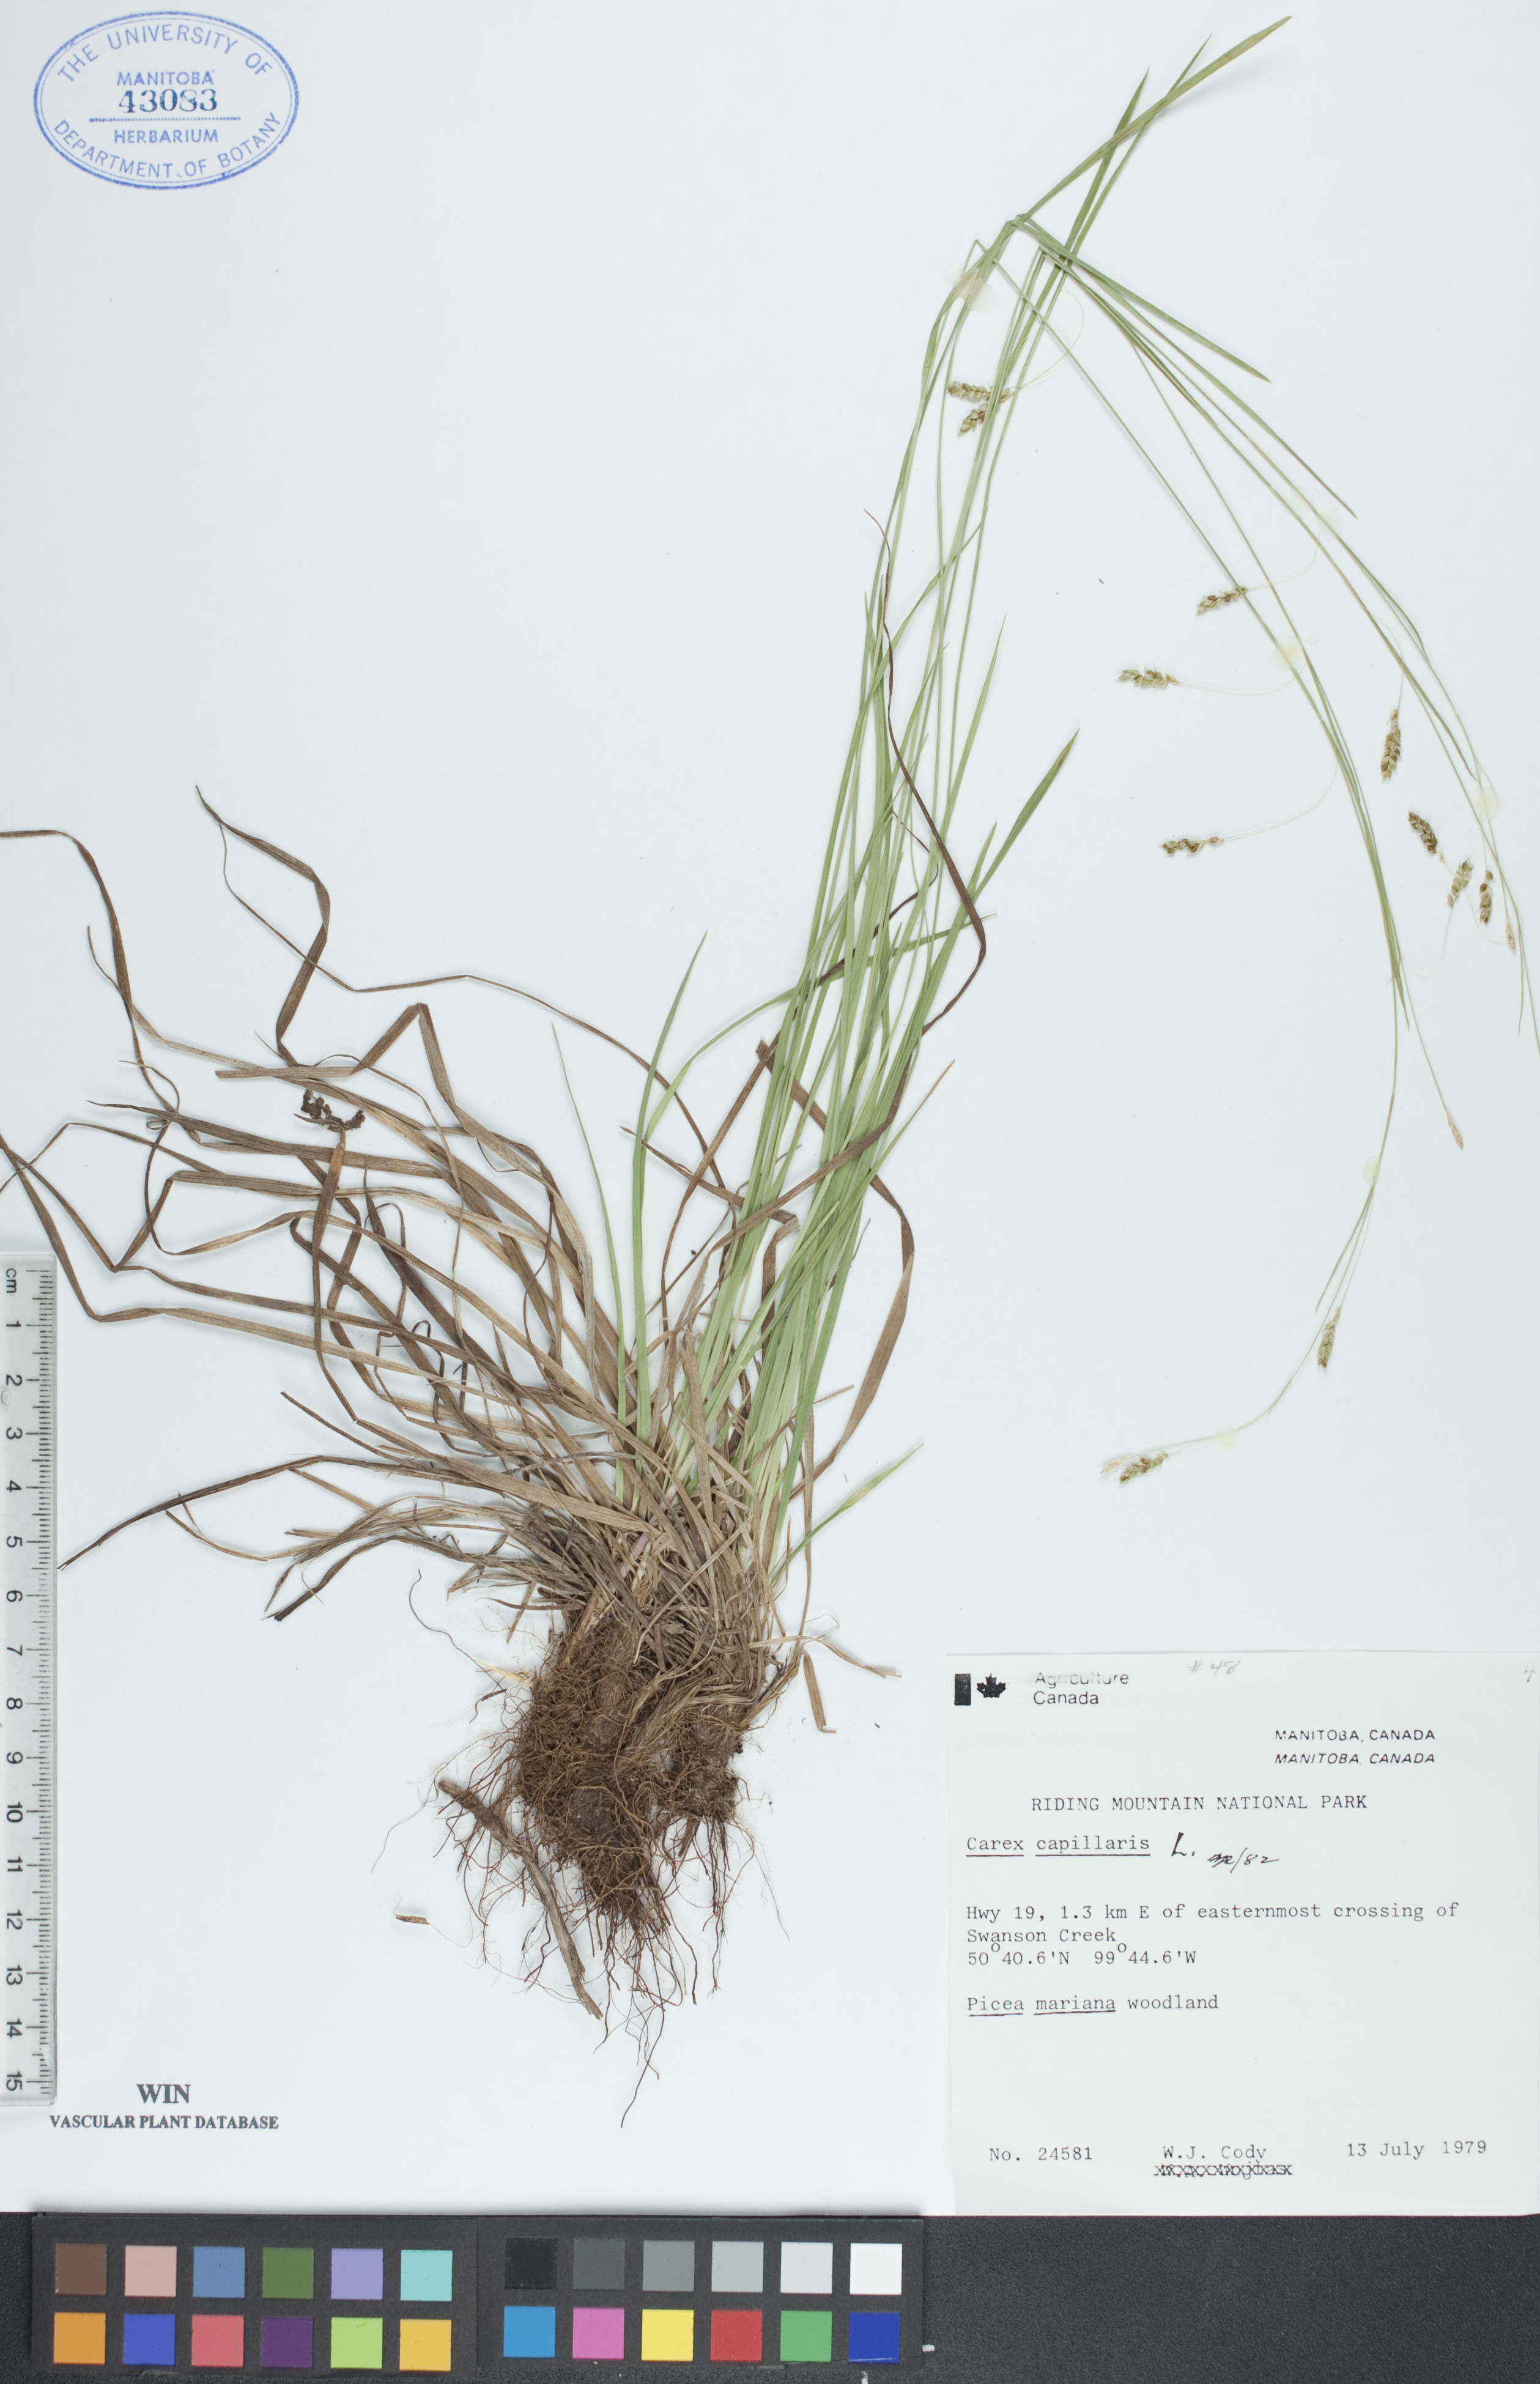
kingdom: Plantae
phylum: Tracheophyta
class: Liliopsida
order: Poales
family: Cyperaceae
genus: Carex
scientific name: Carex capillaris
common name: Hair sedge
